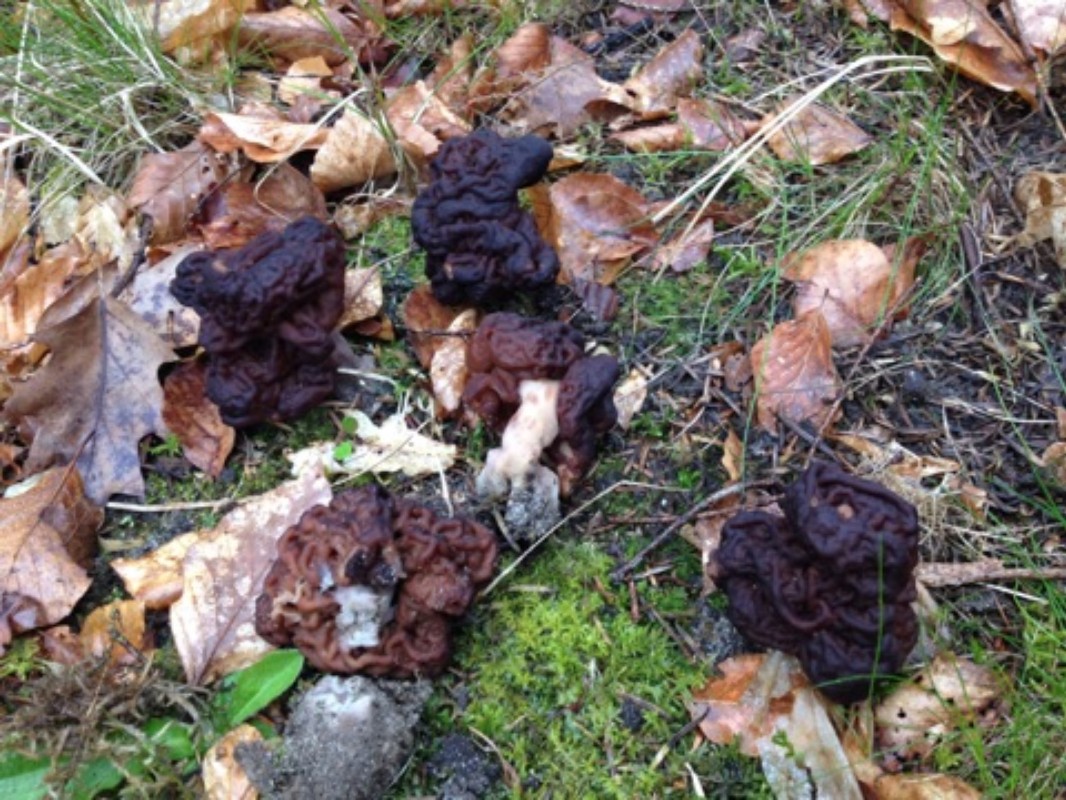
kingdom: Fungi
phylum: Ascomycota
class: Pezizomycetes
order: Pezizales
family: Discinaceae
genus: Gyromitra
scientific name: Gyromitra esculenta
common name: ægte stenmorkel
